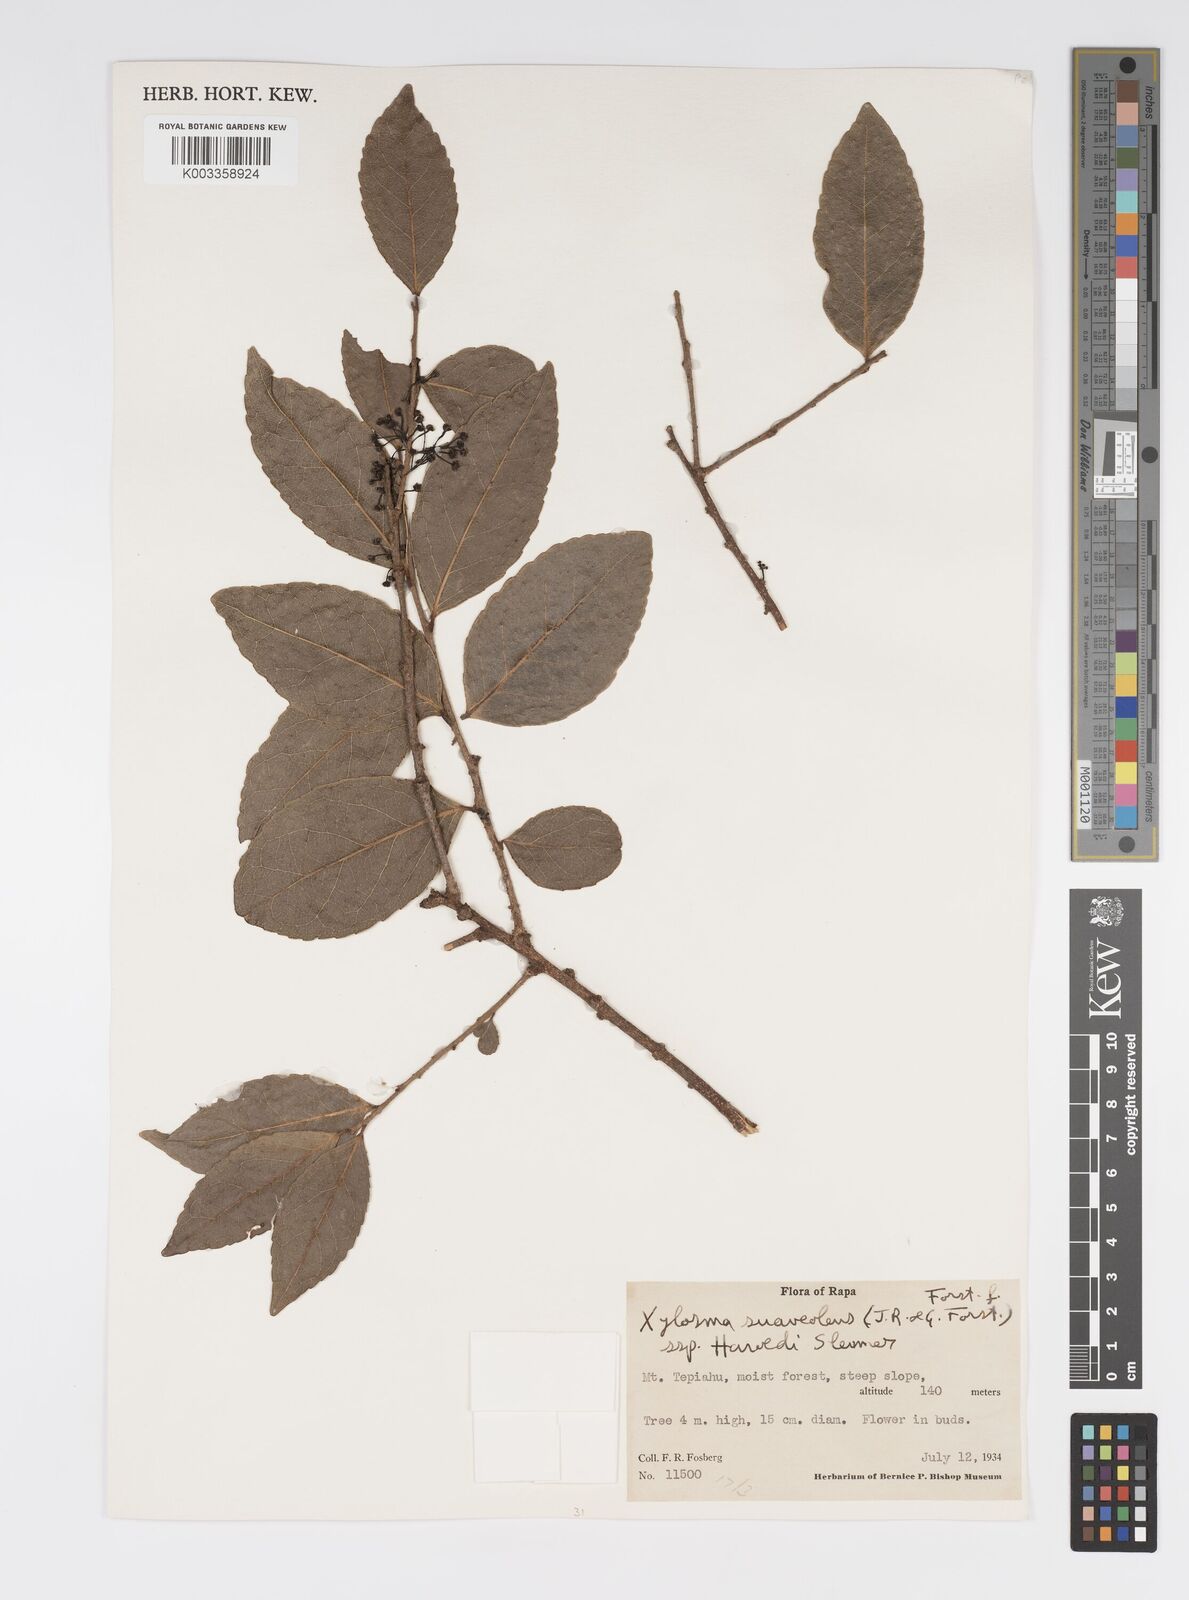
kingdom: Plantae
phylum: Tracheophyta
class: Magnoliopsida
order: Malpighiales
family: Salicaceae
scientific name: Salicaceae
